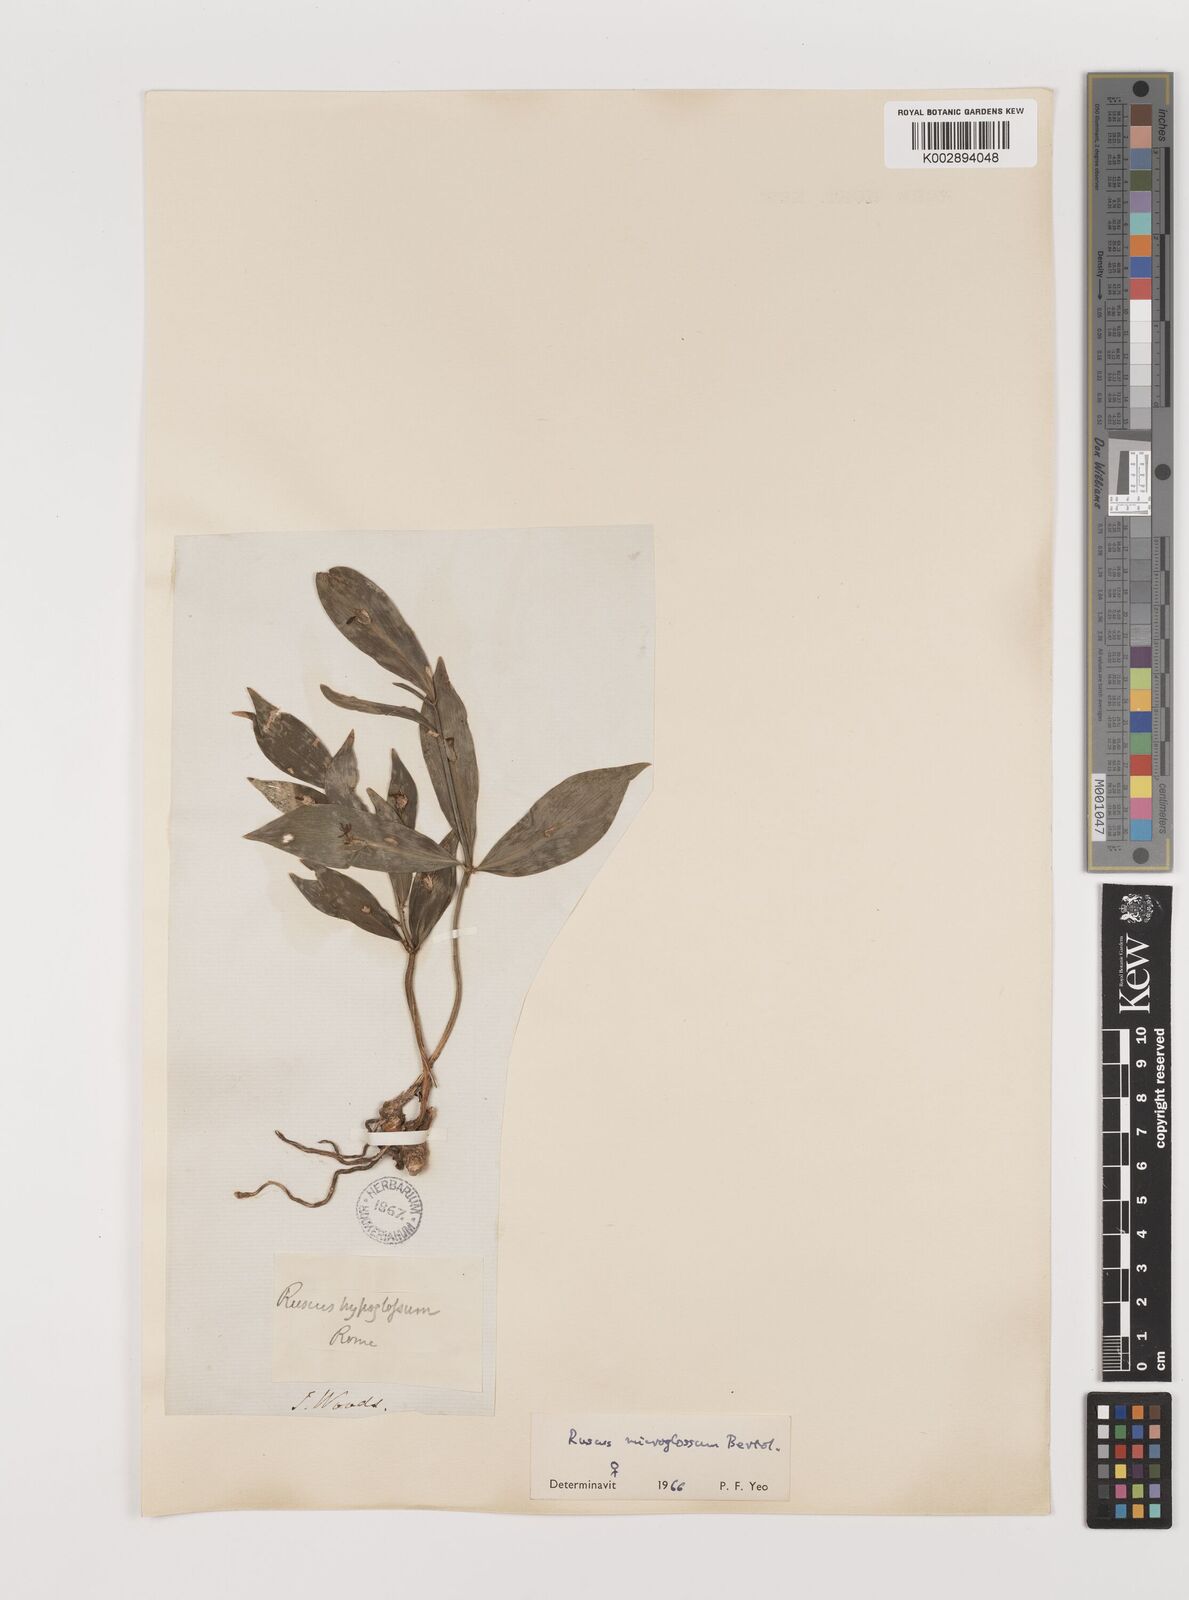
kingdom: Plantae
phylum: Tracheophyta
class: Liliopsida
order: Asparagales
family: Asparagaceae
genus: Ruscus
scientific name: Ruscus microglossus
